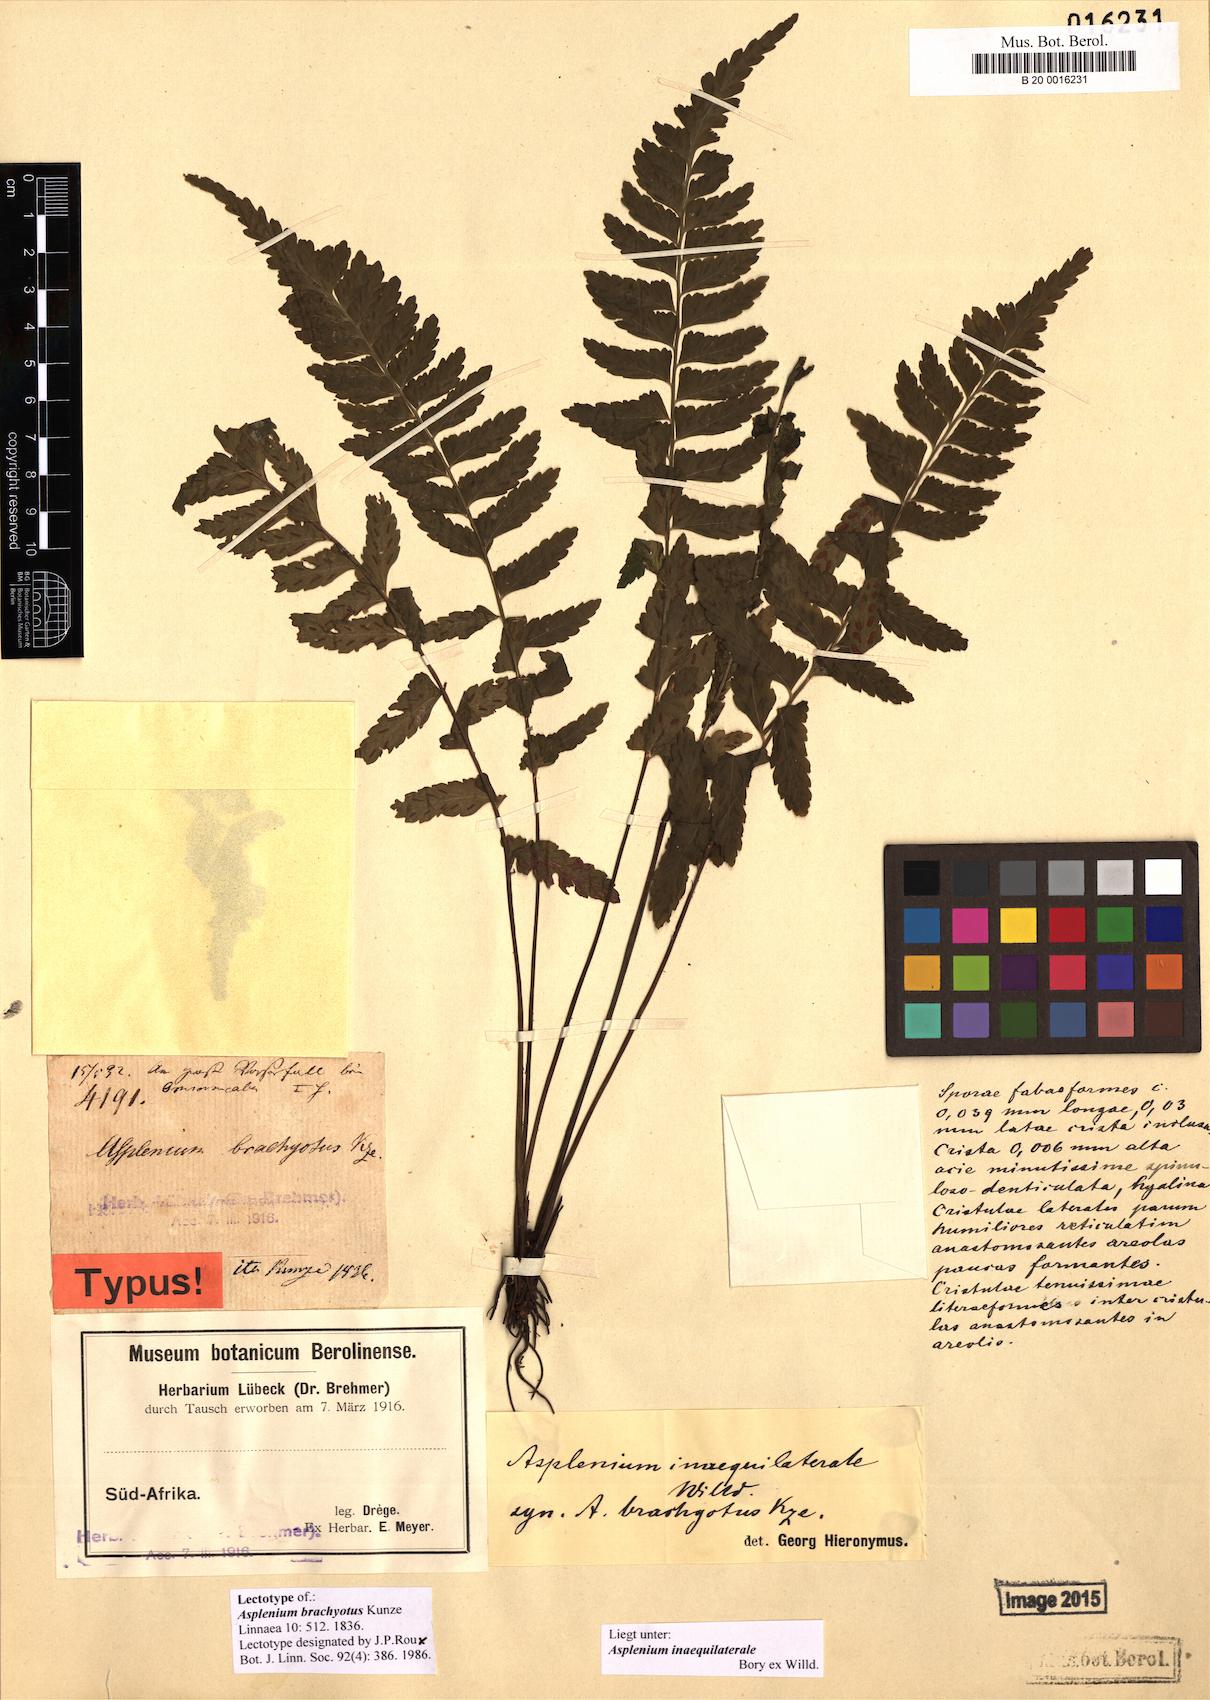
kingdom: Plantae
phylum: Tracheophyta
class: Polypodiopsida
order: Polypodiales
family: Aspleniaceae
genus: Asplenium
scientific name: Asplenium inaequilaterale
